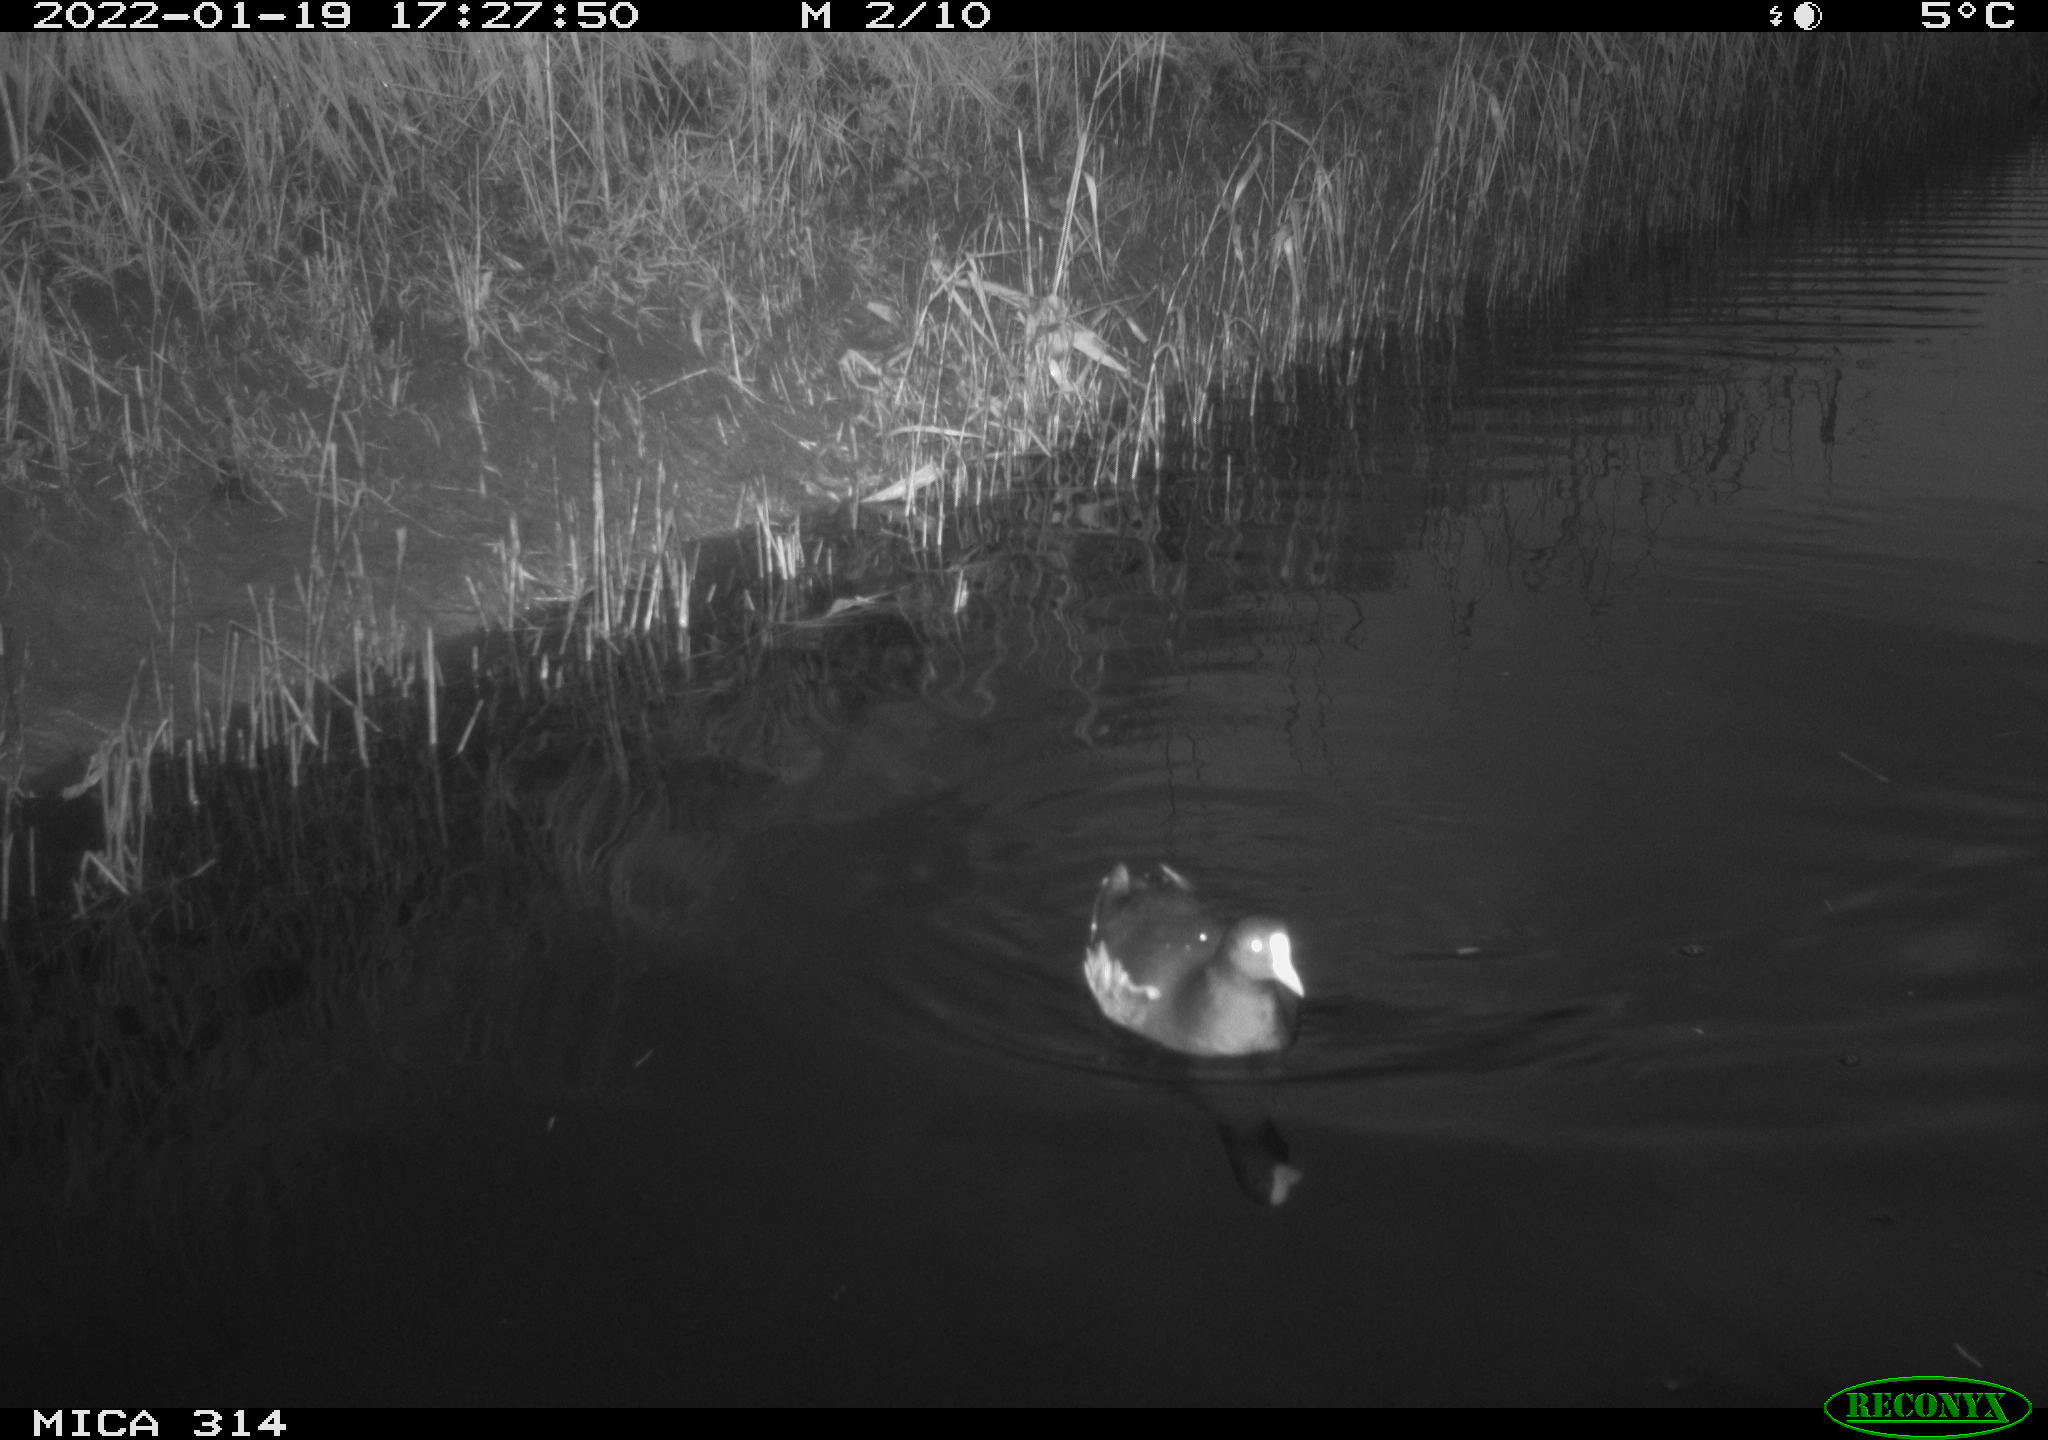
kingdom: Animalia
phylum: Chordata
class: Aves
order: Gruiformes
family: Rallidae
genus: Fulica
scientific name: Fulica atra
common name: Eurasian coot
